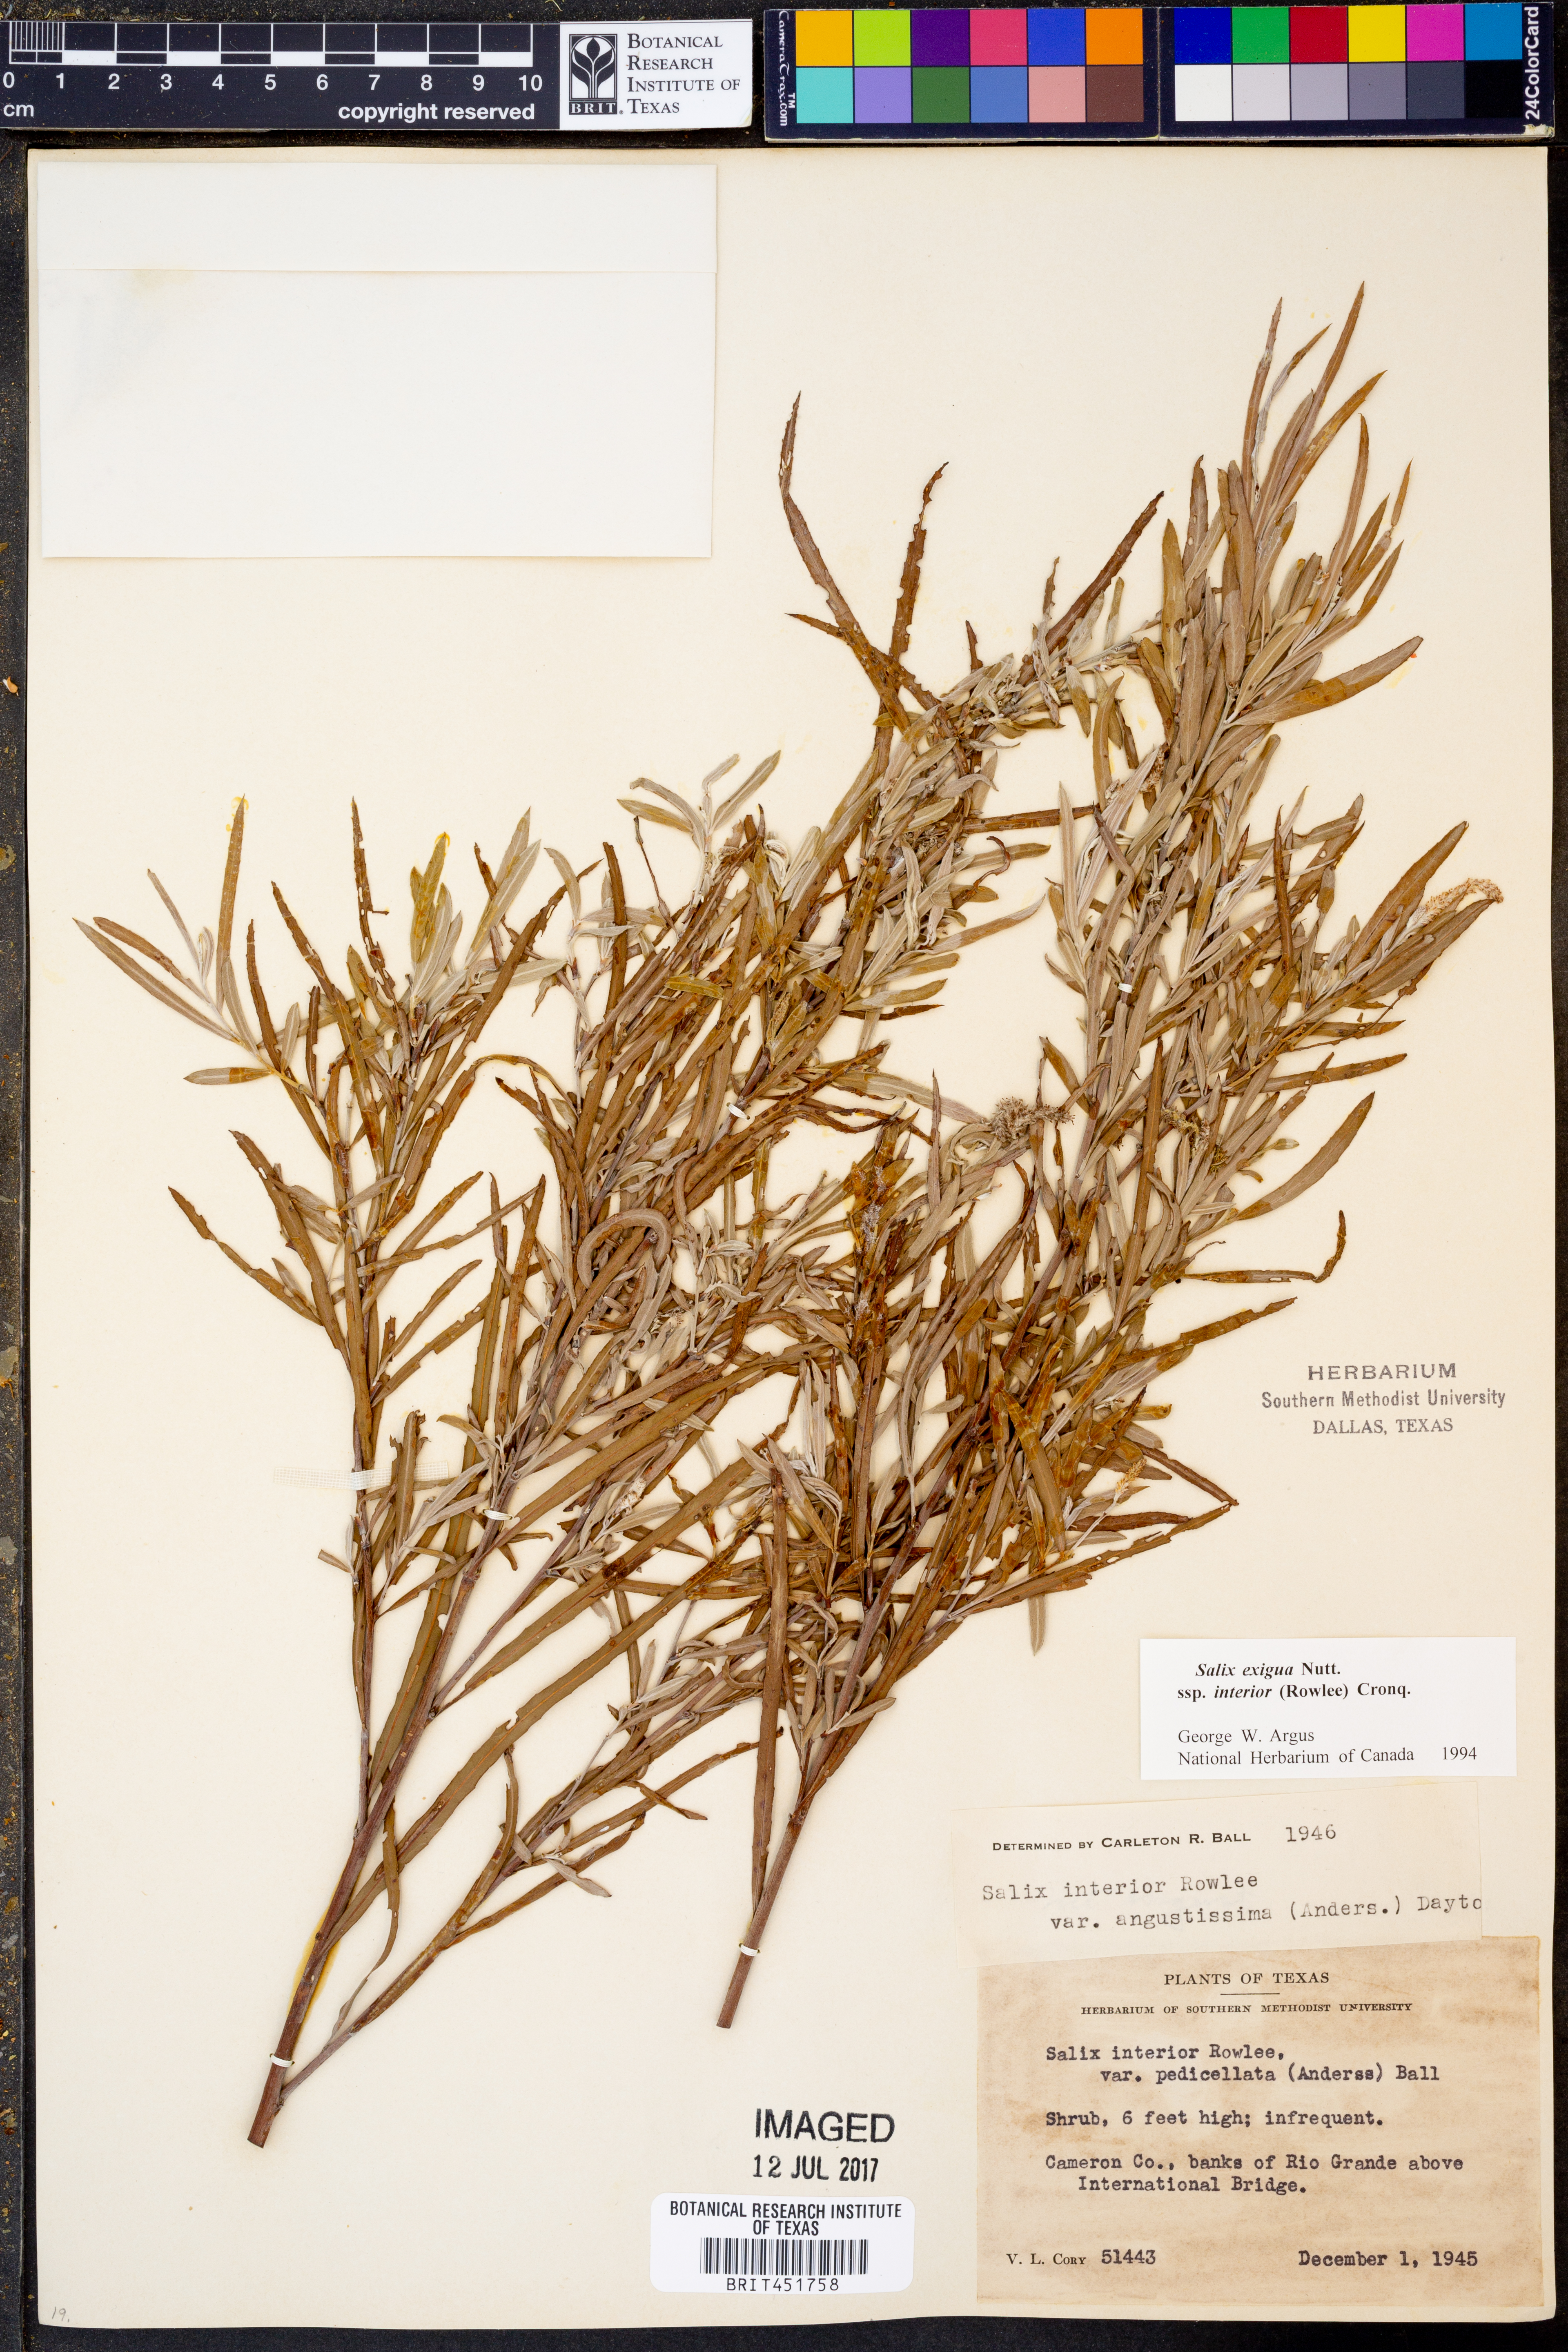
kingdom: Plantae
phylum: Tracheophyta
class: Magnoliopsida
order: Malpighiales
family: Salicaceae
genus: Salix
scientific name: Salix interior
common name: Sandbar willow
